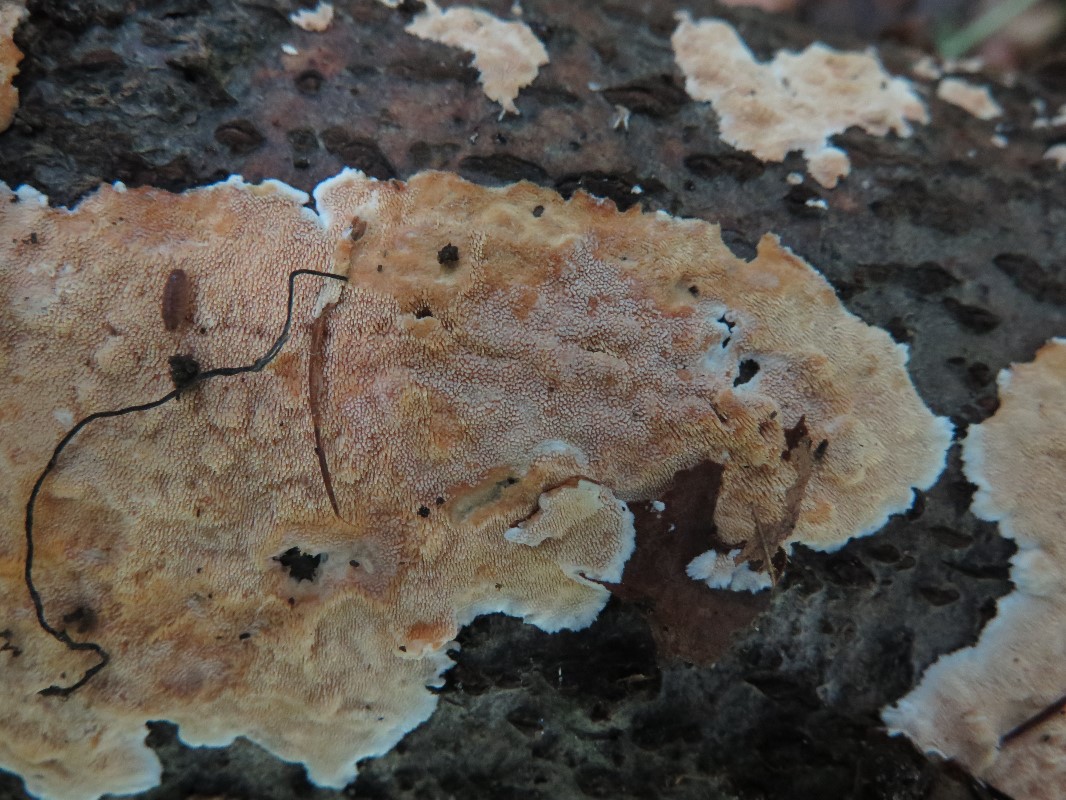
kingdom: Fungi
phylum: Basidiomycota
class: Agaricomycetes
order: Polyporales
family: Steccherinaceae
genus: Steccherinum
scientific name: Steccherinum ochraceum
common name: almindelig skønpig
